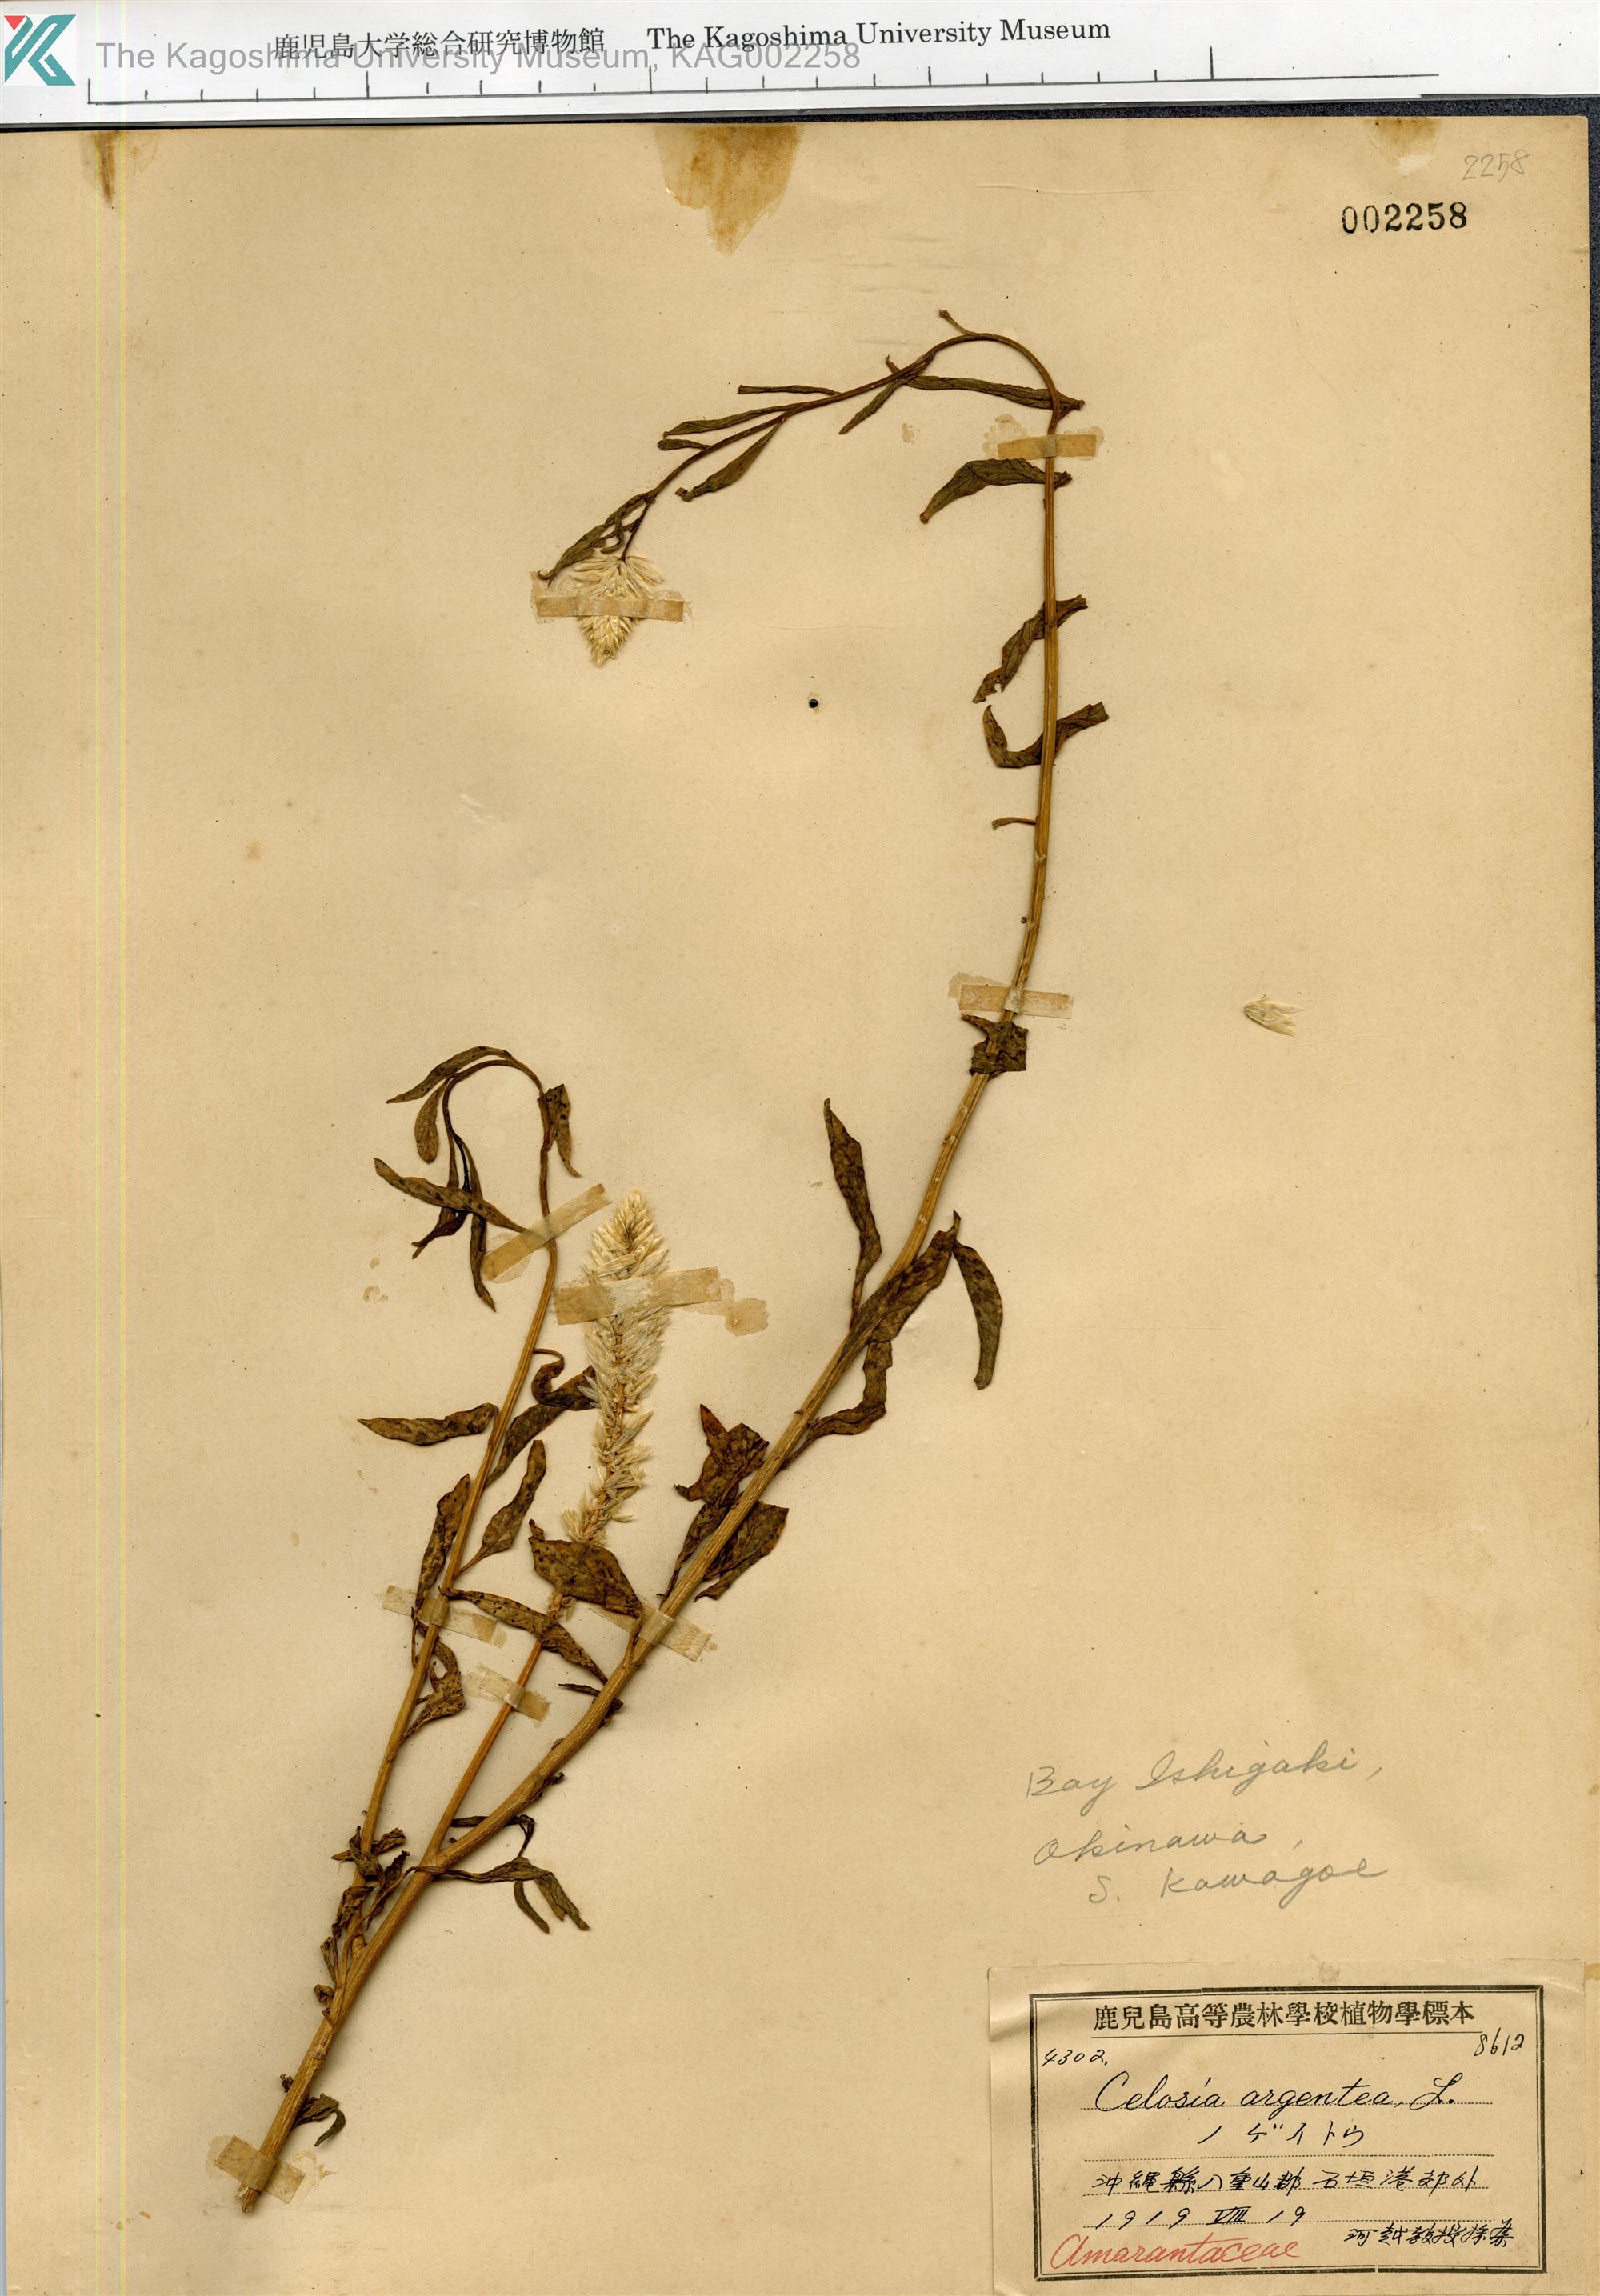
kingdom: Plantae
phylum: Tracheophyta
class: Magnoliopsida
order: Caryophyllales
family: Amaranthaceae
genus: Celosia
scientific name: Celosia argentea
